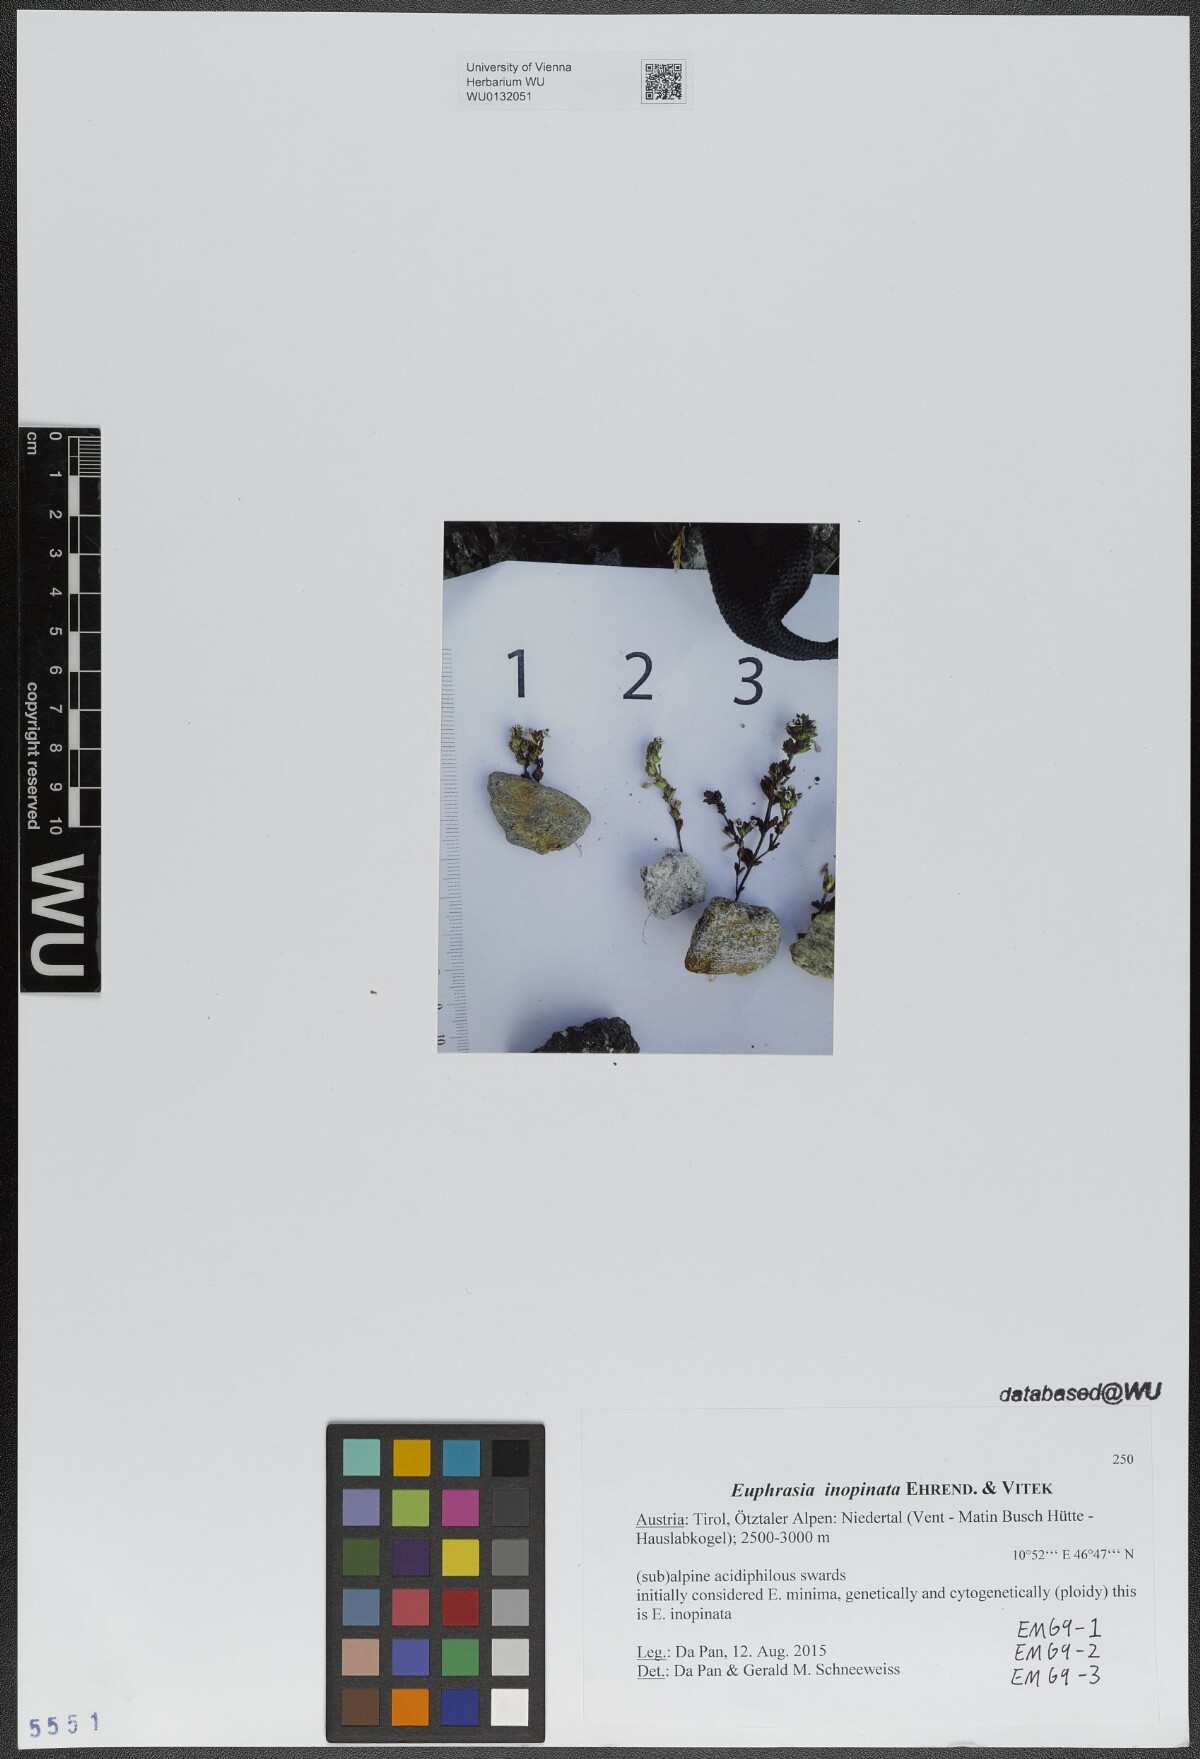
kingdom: Plantae
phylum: Tracheophyta
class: Magnoliopsida
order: Lamiales
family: Orobanchaceae
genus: Euphrasia
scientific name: Euphrasia inopinata
